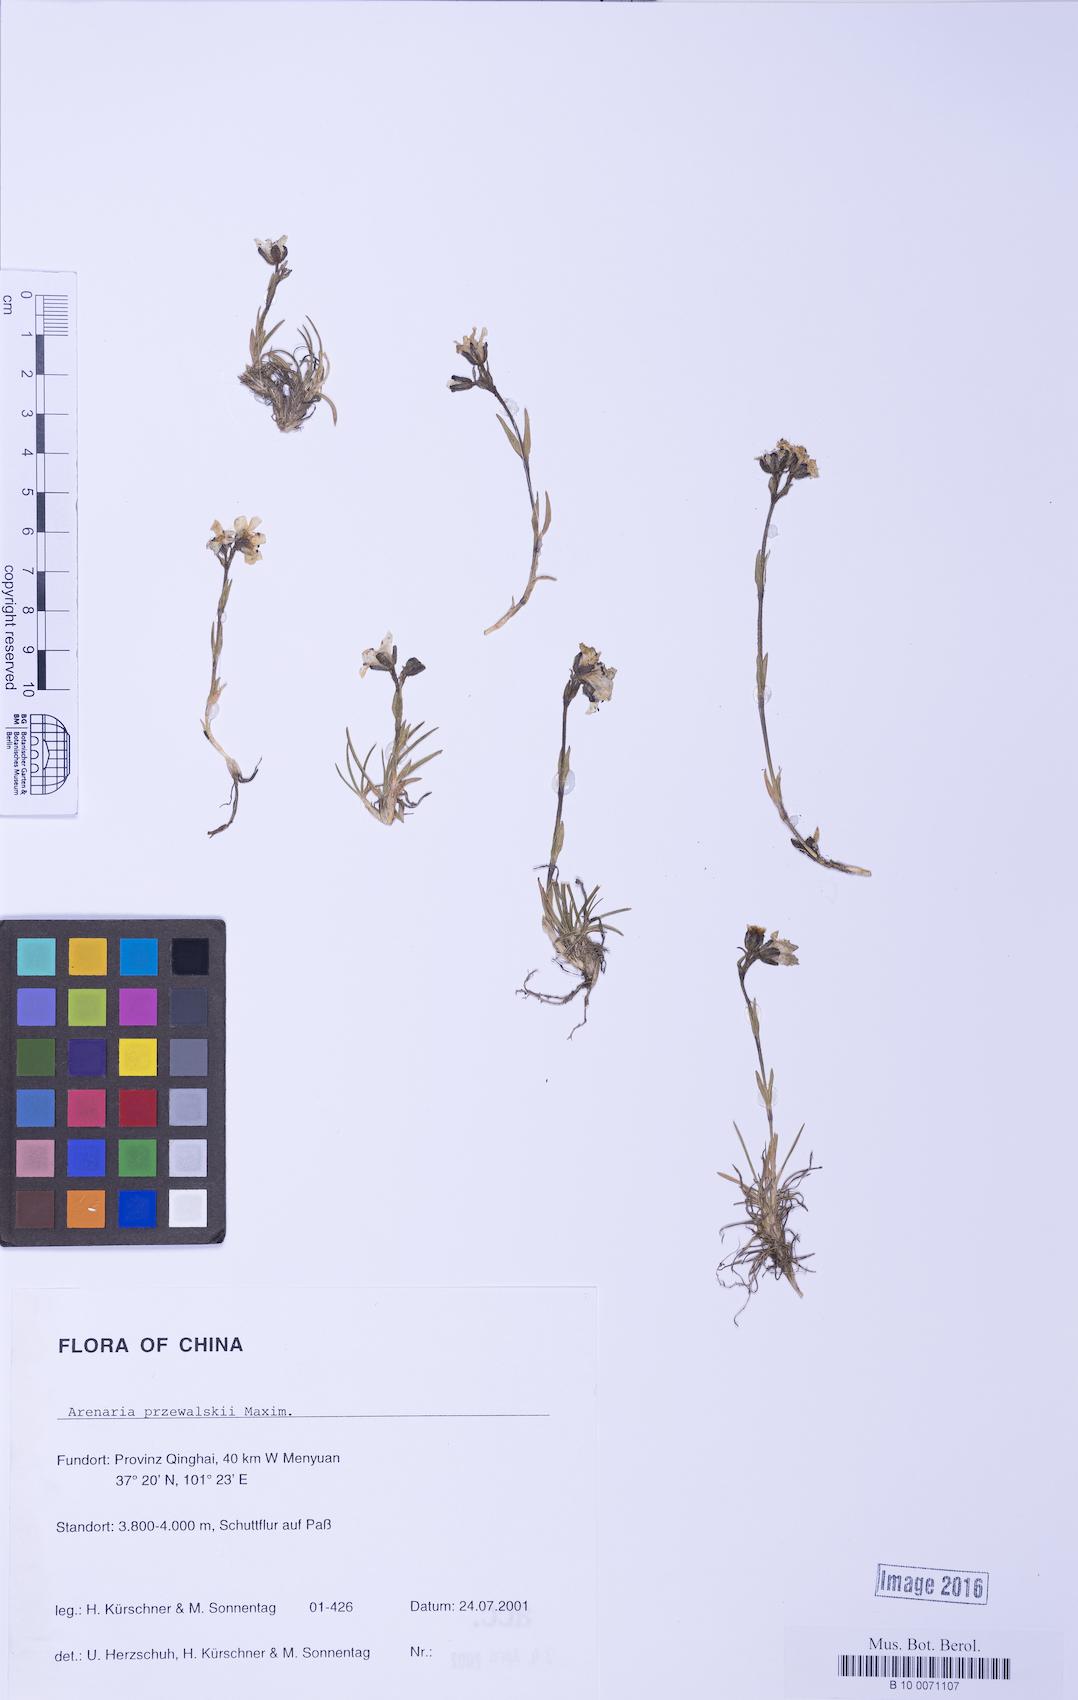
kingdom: Plantae
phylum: Tracheophyta
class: Magnoliopsida
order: Caryophyllales
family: Caryophyllaceae
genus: Eremogone
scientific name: Eremogone przewalskii
